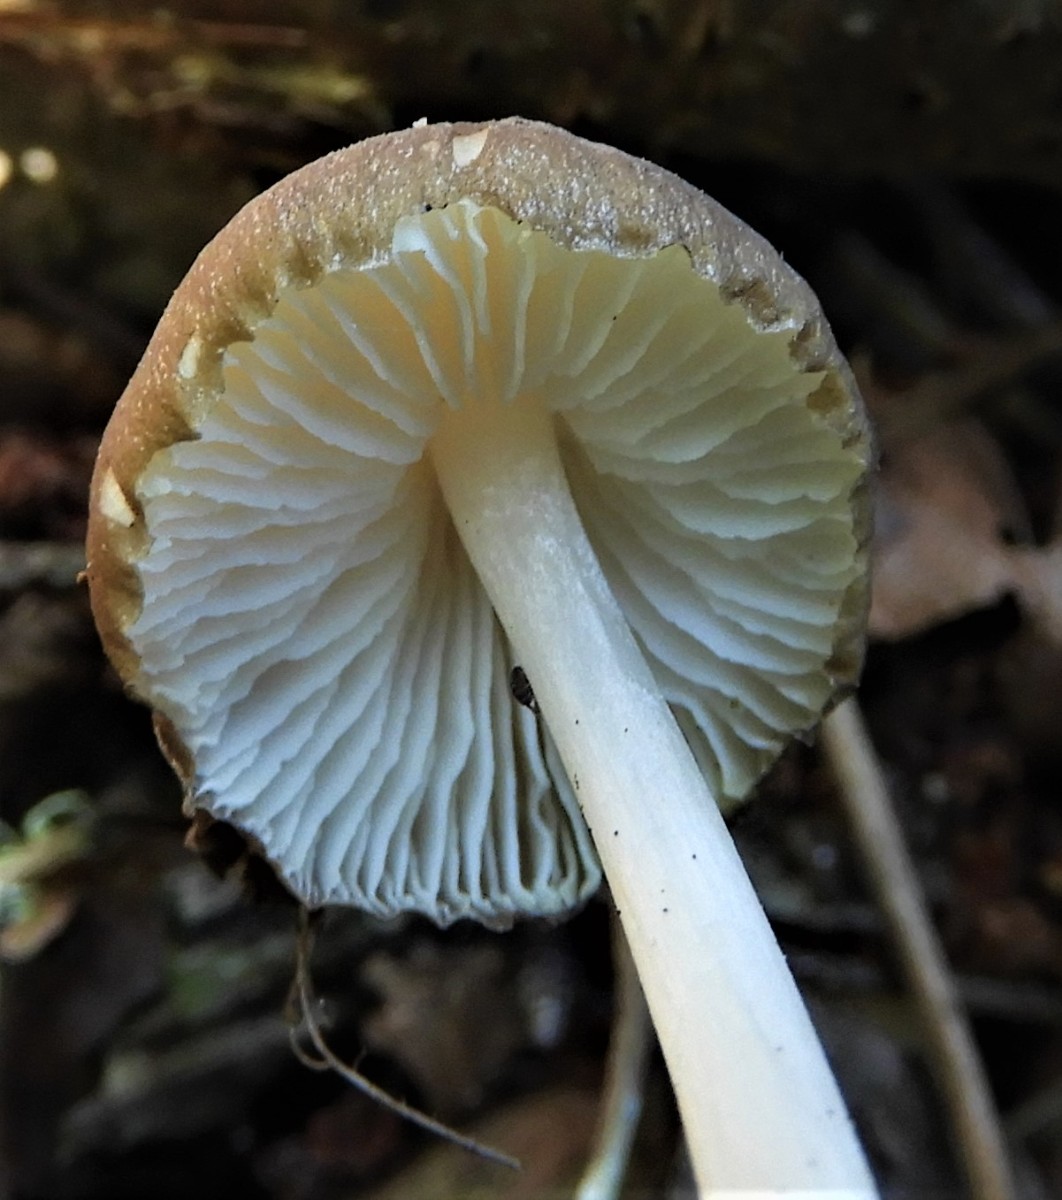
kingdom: Fungi
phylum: Basidiomycota
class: Agaricomycetes
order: Agaricales
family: Porotheleaceae
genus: Hydropodia
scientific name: Hydropodia subalpina
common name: vår-fnugfod
